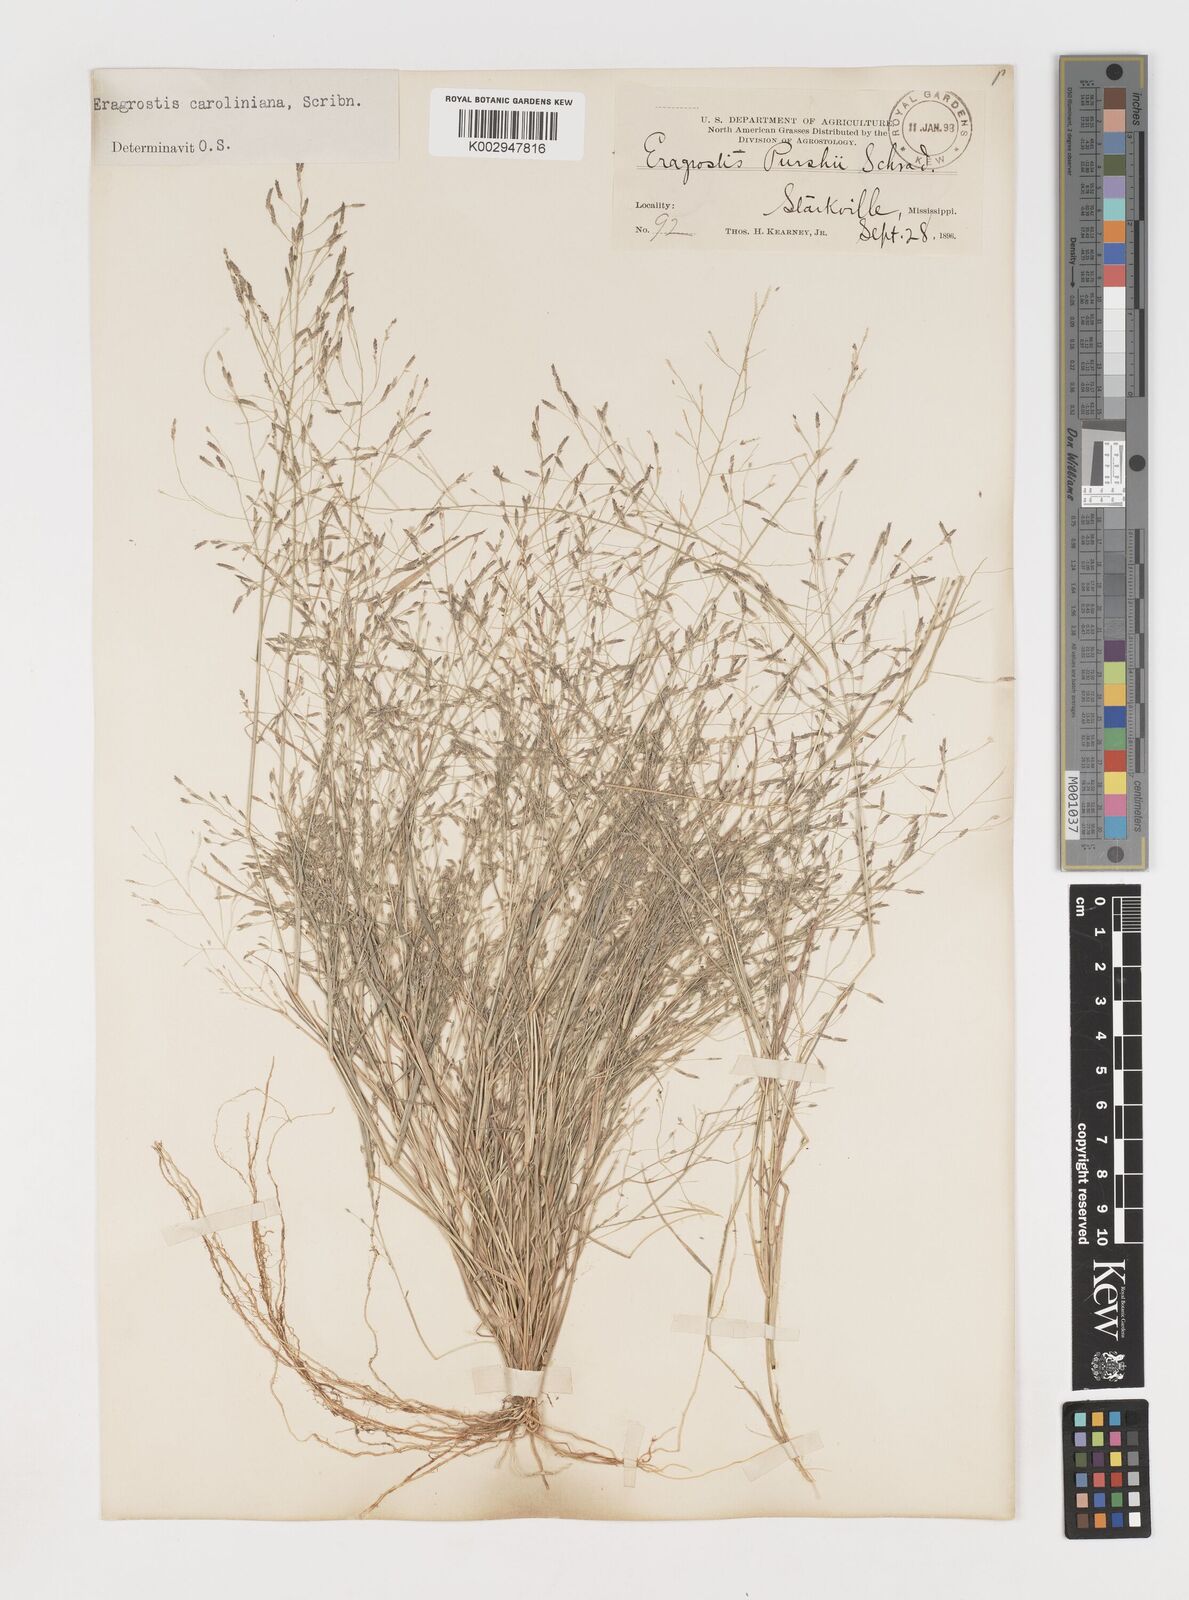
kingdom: Plantae
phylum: Tracheophyta
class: Liliopsida
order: Poales
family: Poaceae
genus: Eragrostis
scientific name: Eragrostis pectinacea
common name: Tufted lovegrass
